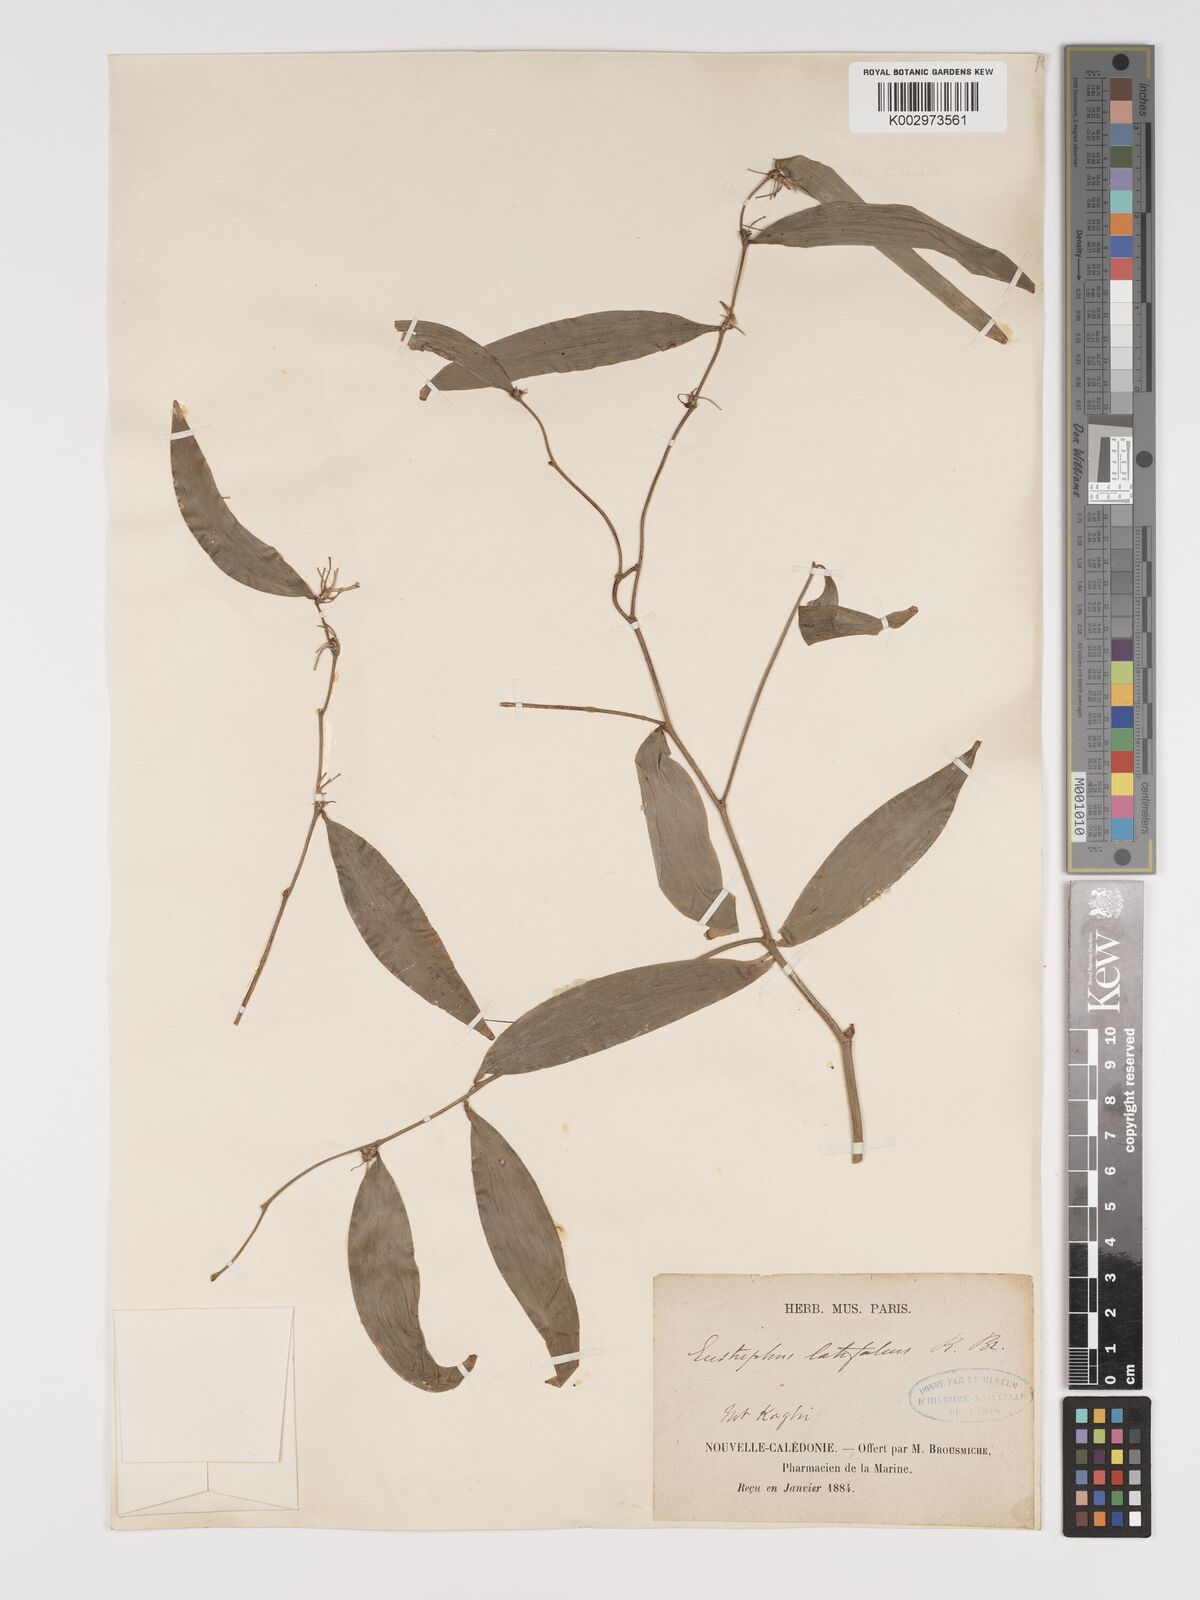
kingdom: Plantae
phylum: Tracheophyta
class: Liliopsida
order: Asparagales
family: Asparagaceae
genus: Eustrephus
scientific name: Eustrephus latifolius
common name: Orangevine
